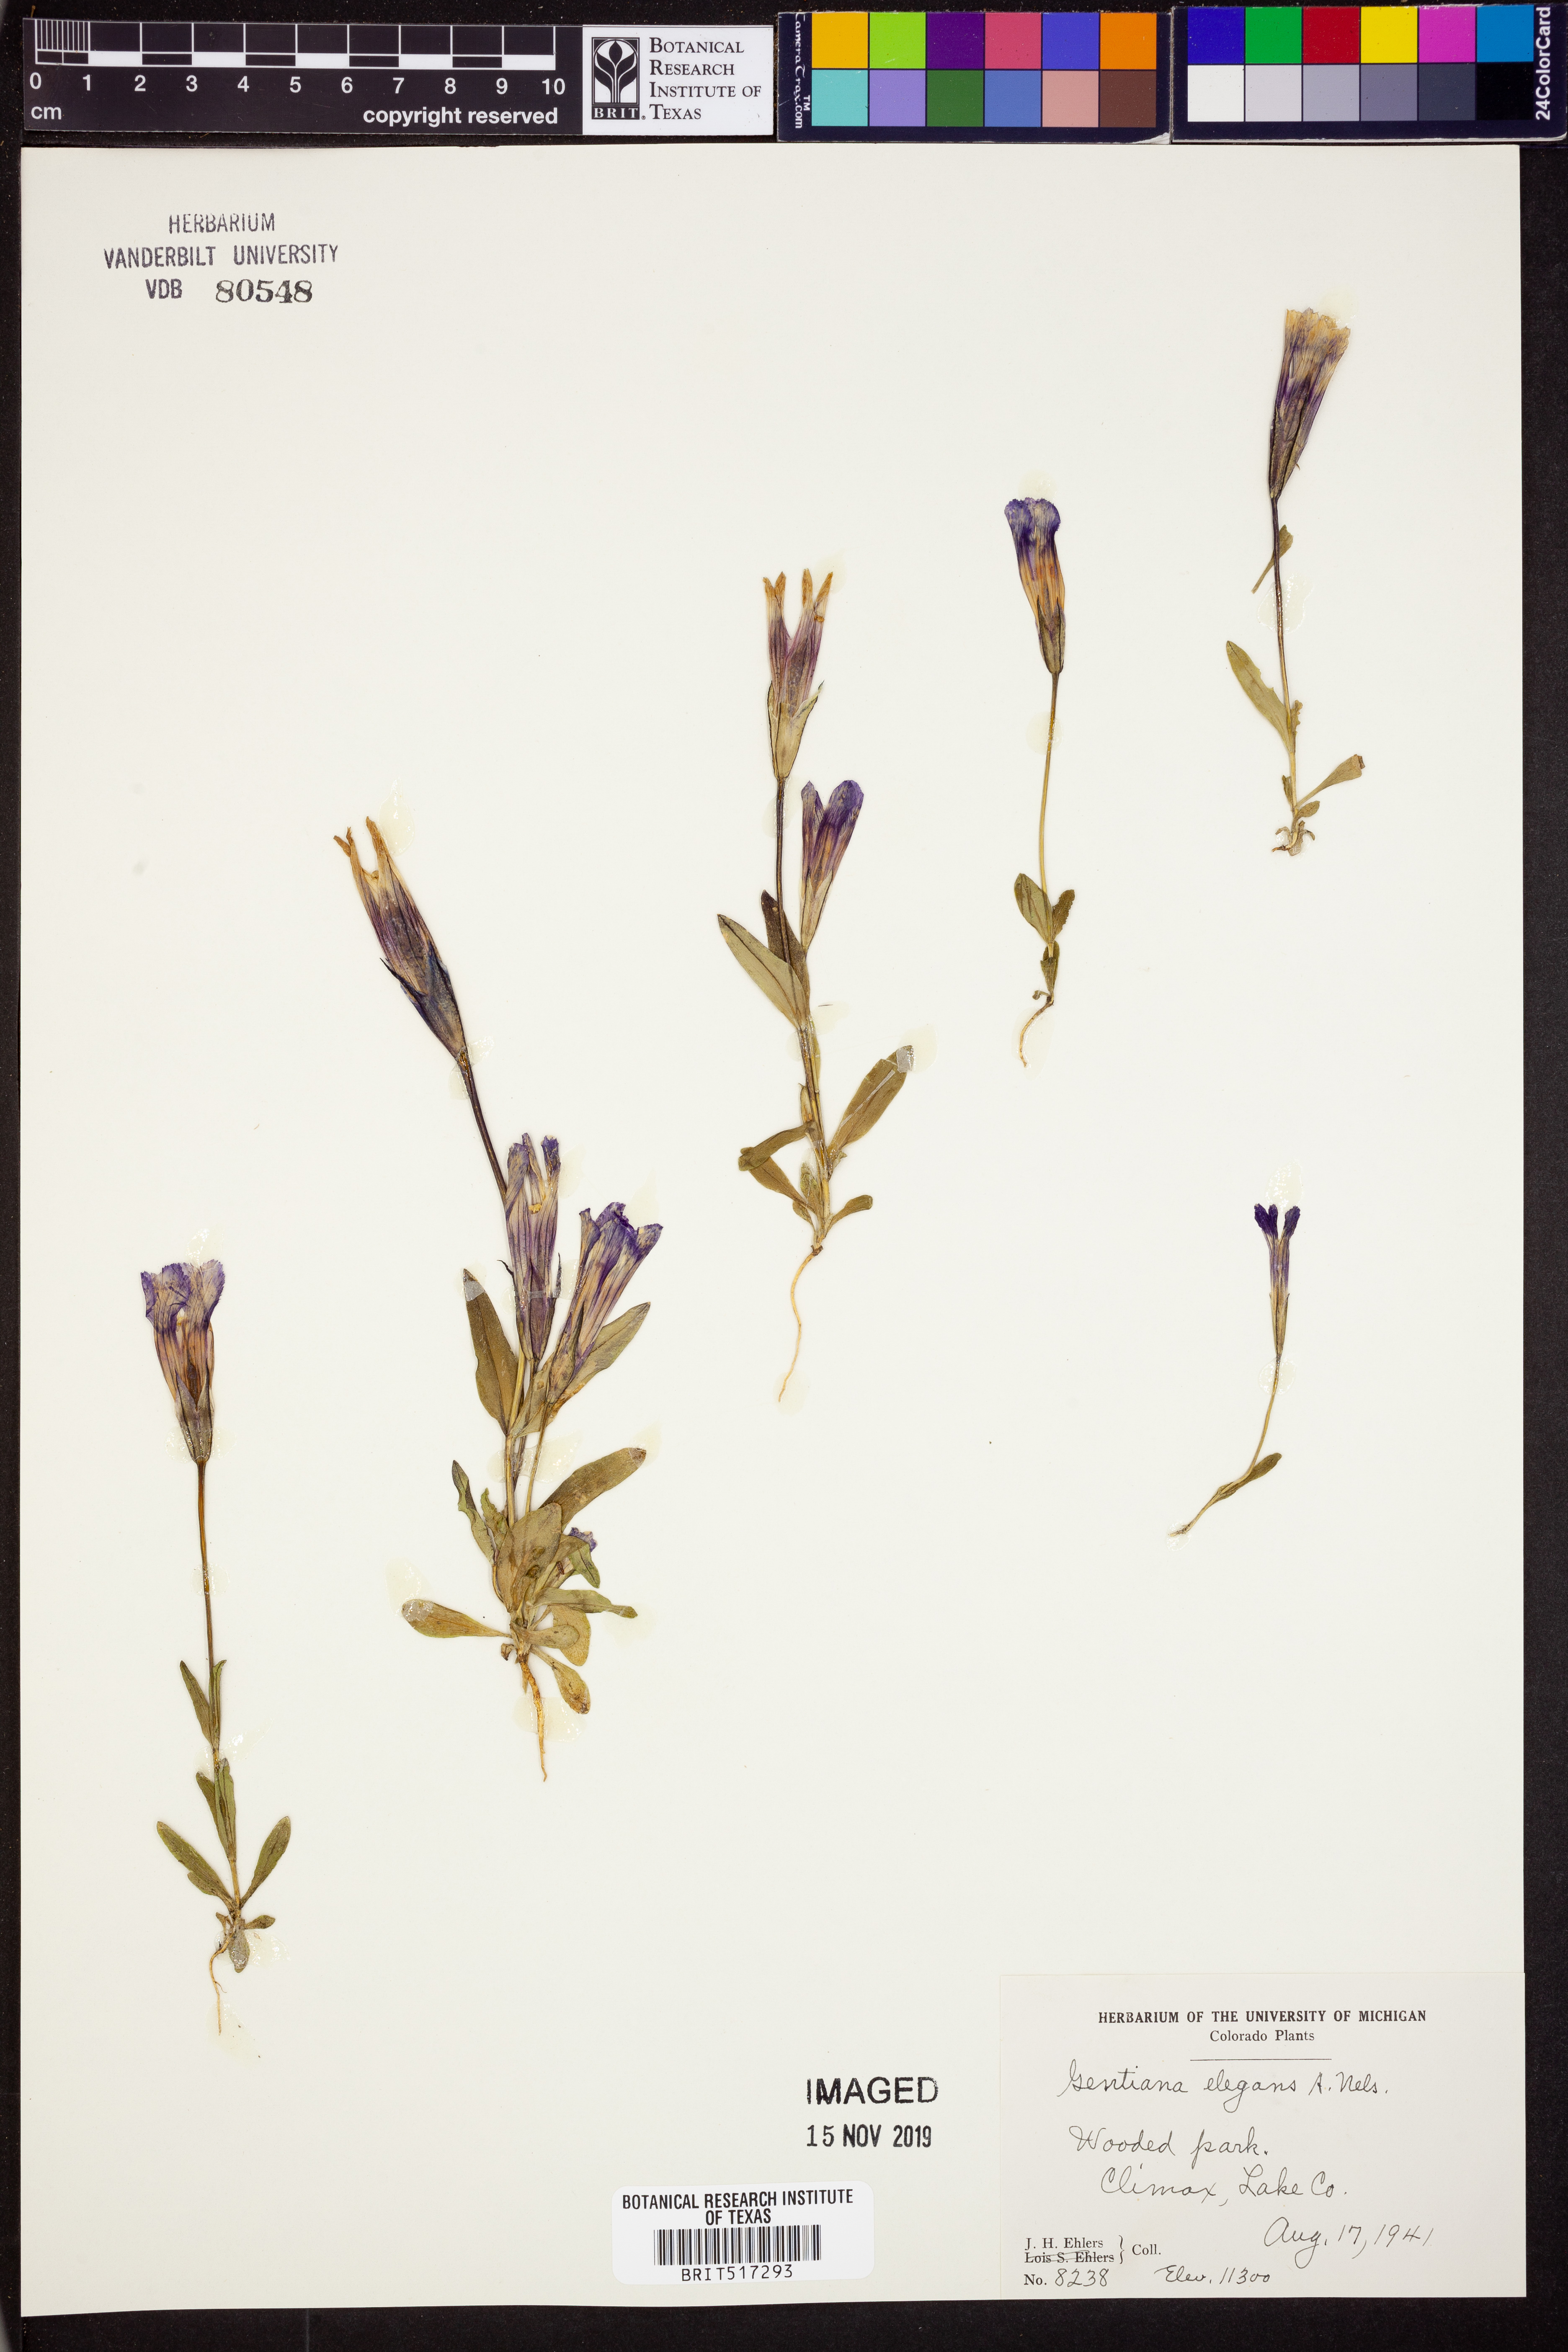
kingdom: Plantae
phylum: Tracheophyta
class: Magnoliopsida
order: Gentianales
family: Gentianaceae
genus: Gentianopsis
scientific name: Gentianopsis thermalis
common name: Rocky mountain fringed-gentian
